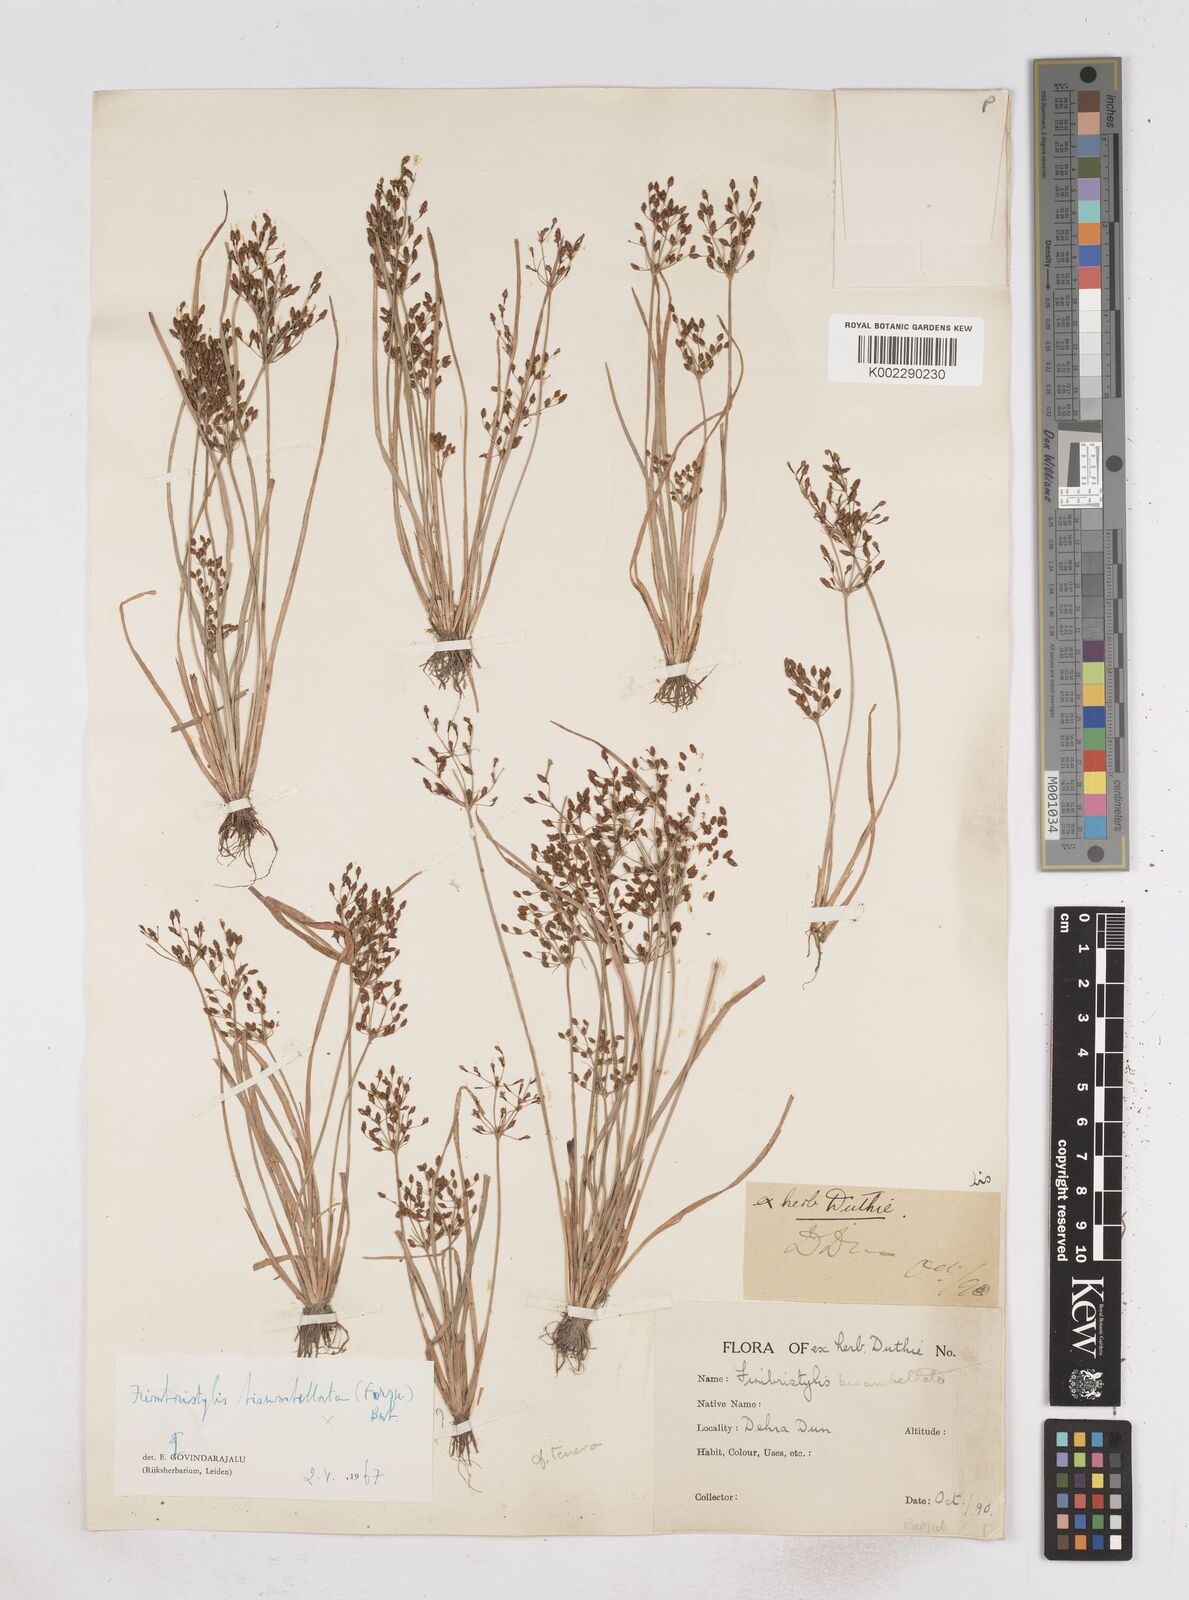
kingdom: Plantae
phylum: Tracheophyta
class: Liliopsida
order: Poales
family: Cyperaceae
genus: Fimbristylis
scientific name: Fimbristylis
